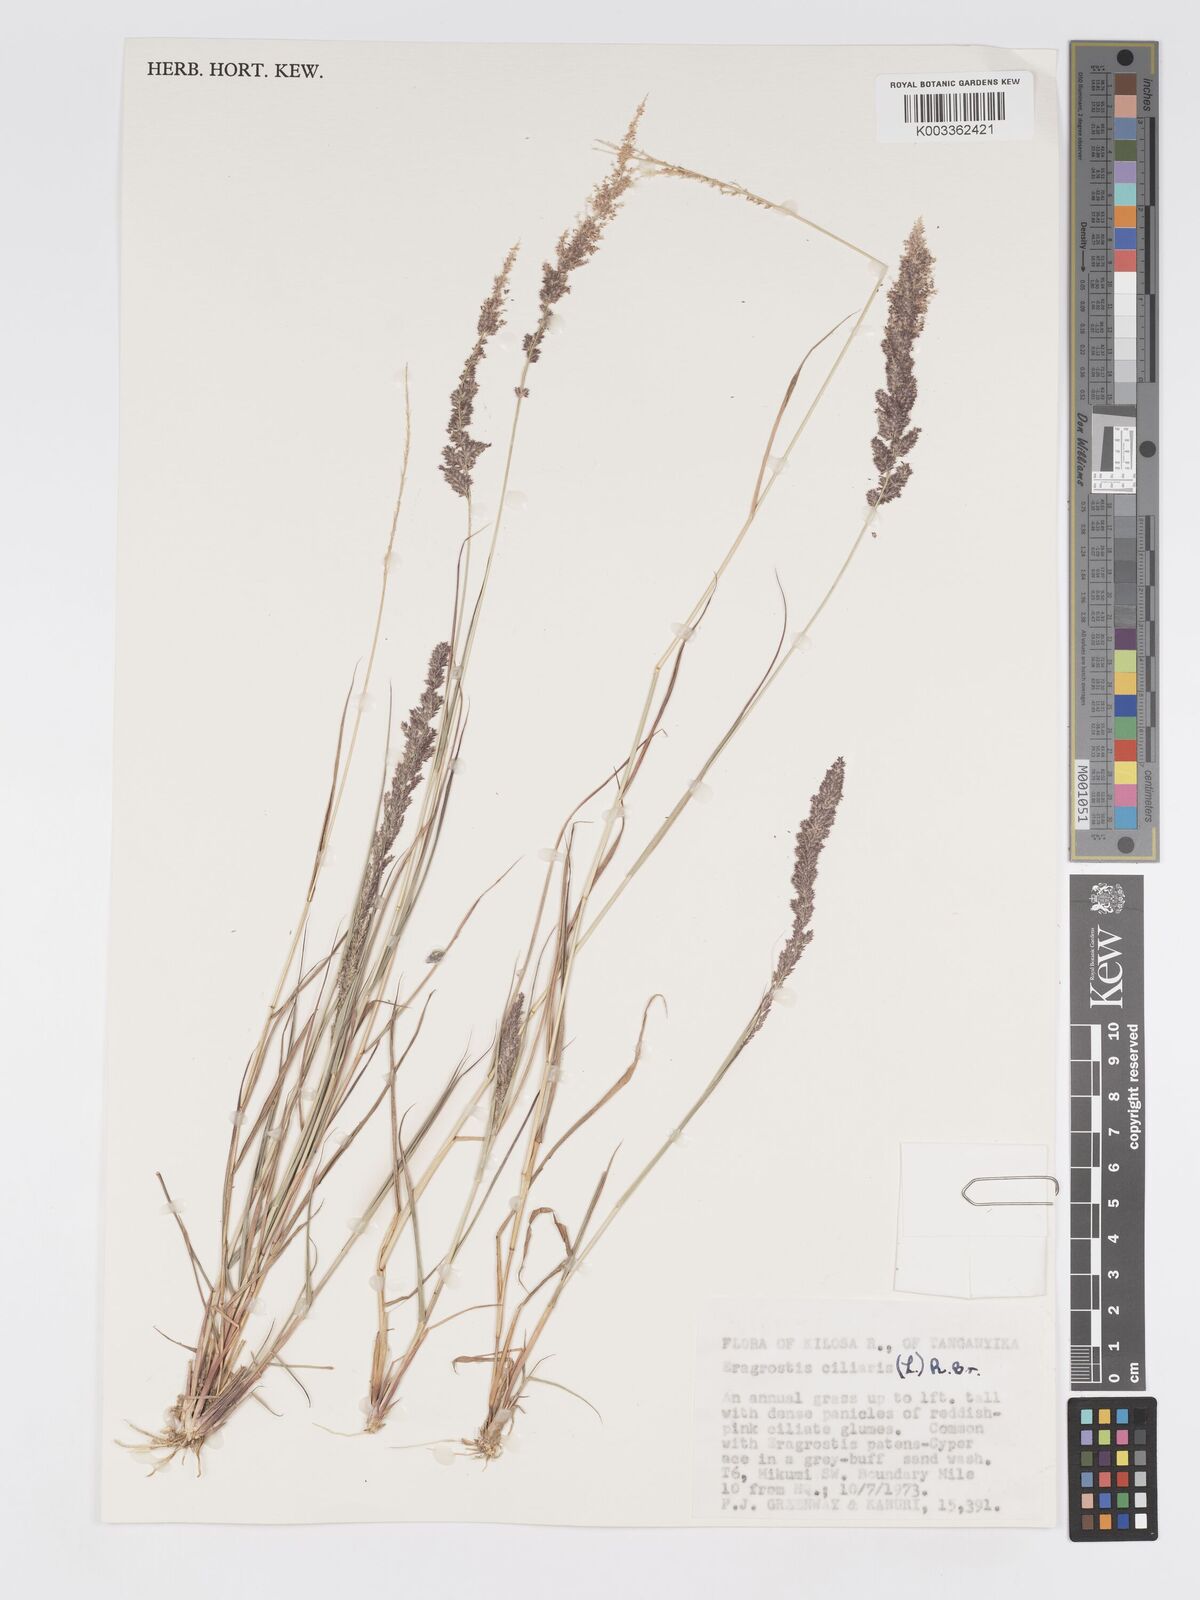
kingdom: Plantae
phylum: Tracheophyta
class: Liliopsida
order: Poales
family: Poaceae
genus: Eragrostis
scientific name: Eragrostis ciliaris
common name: Gophertail lovegrass
